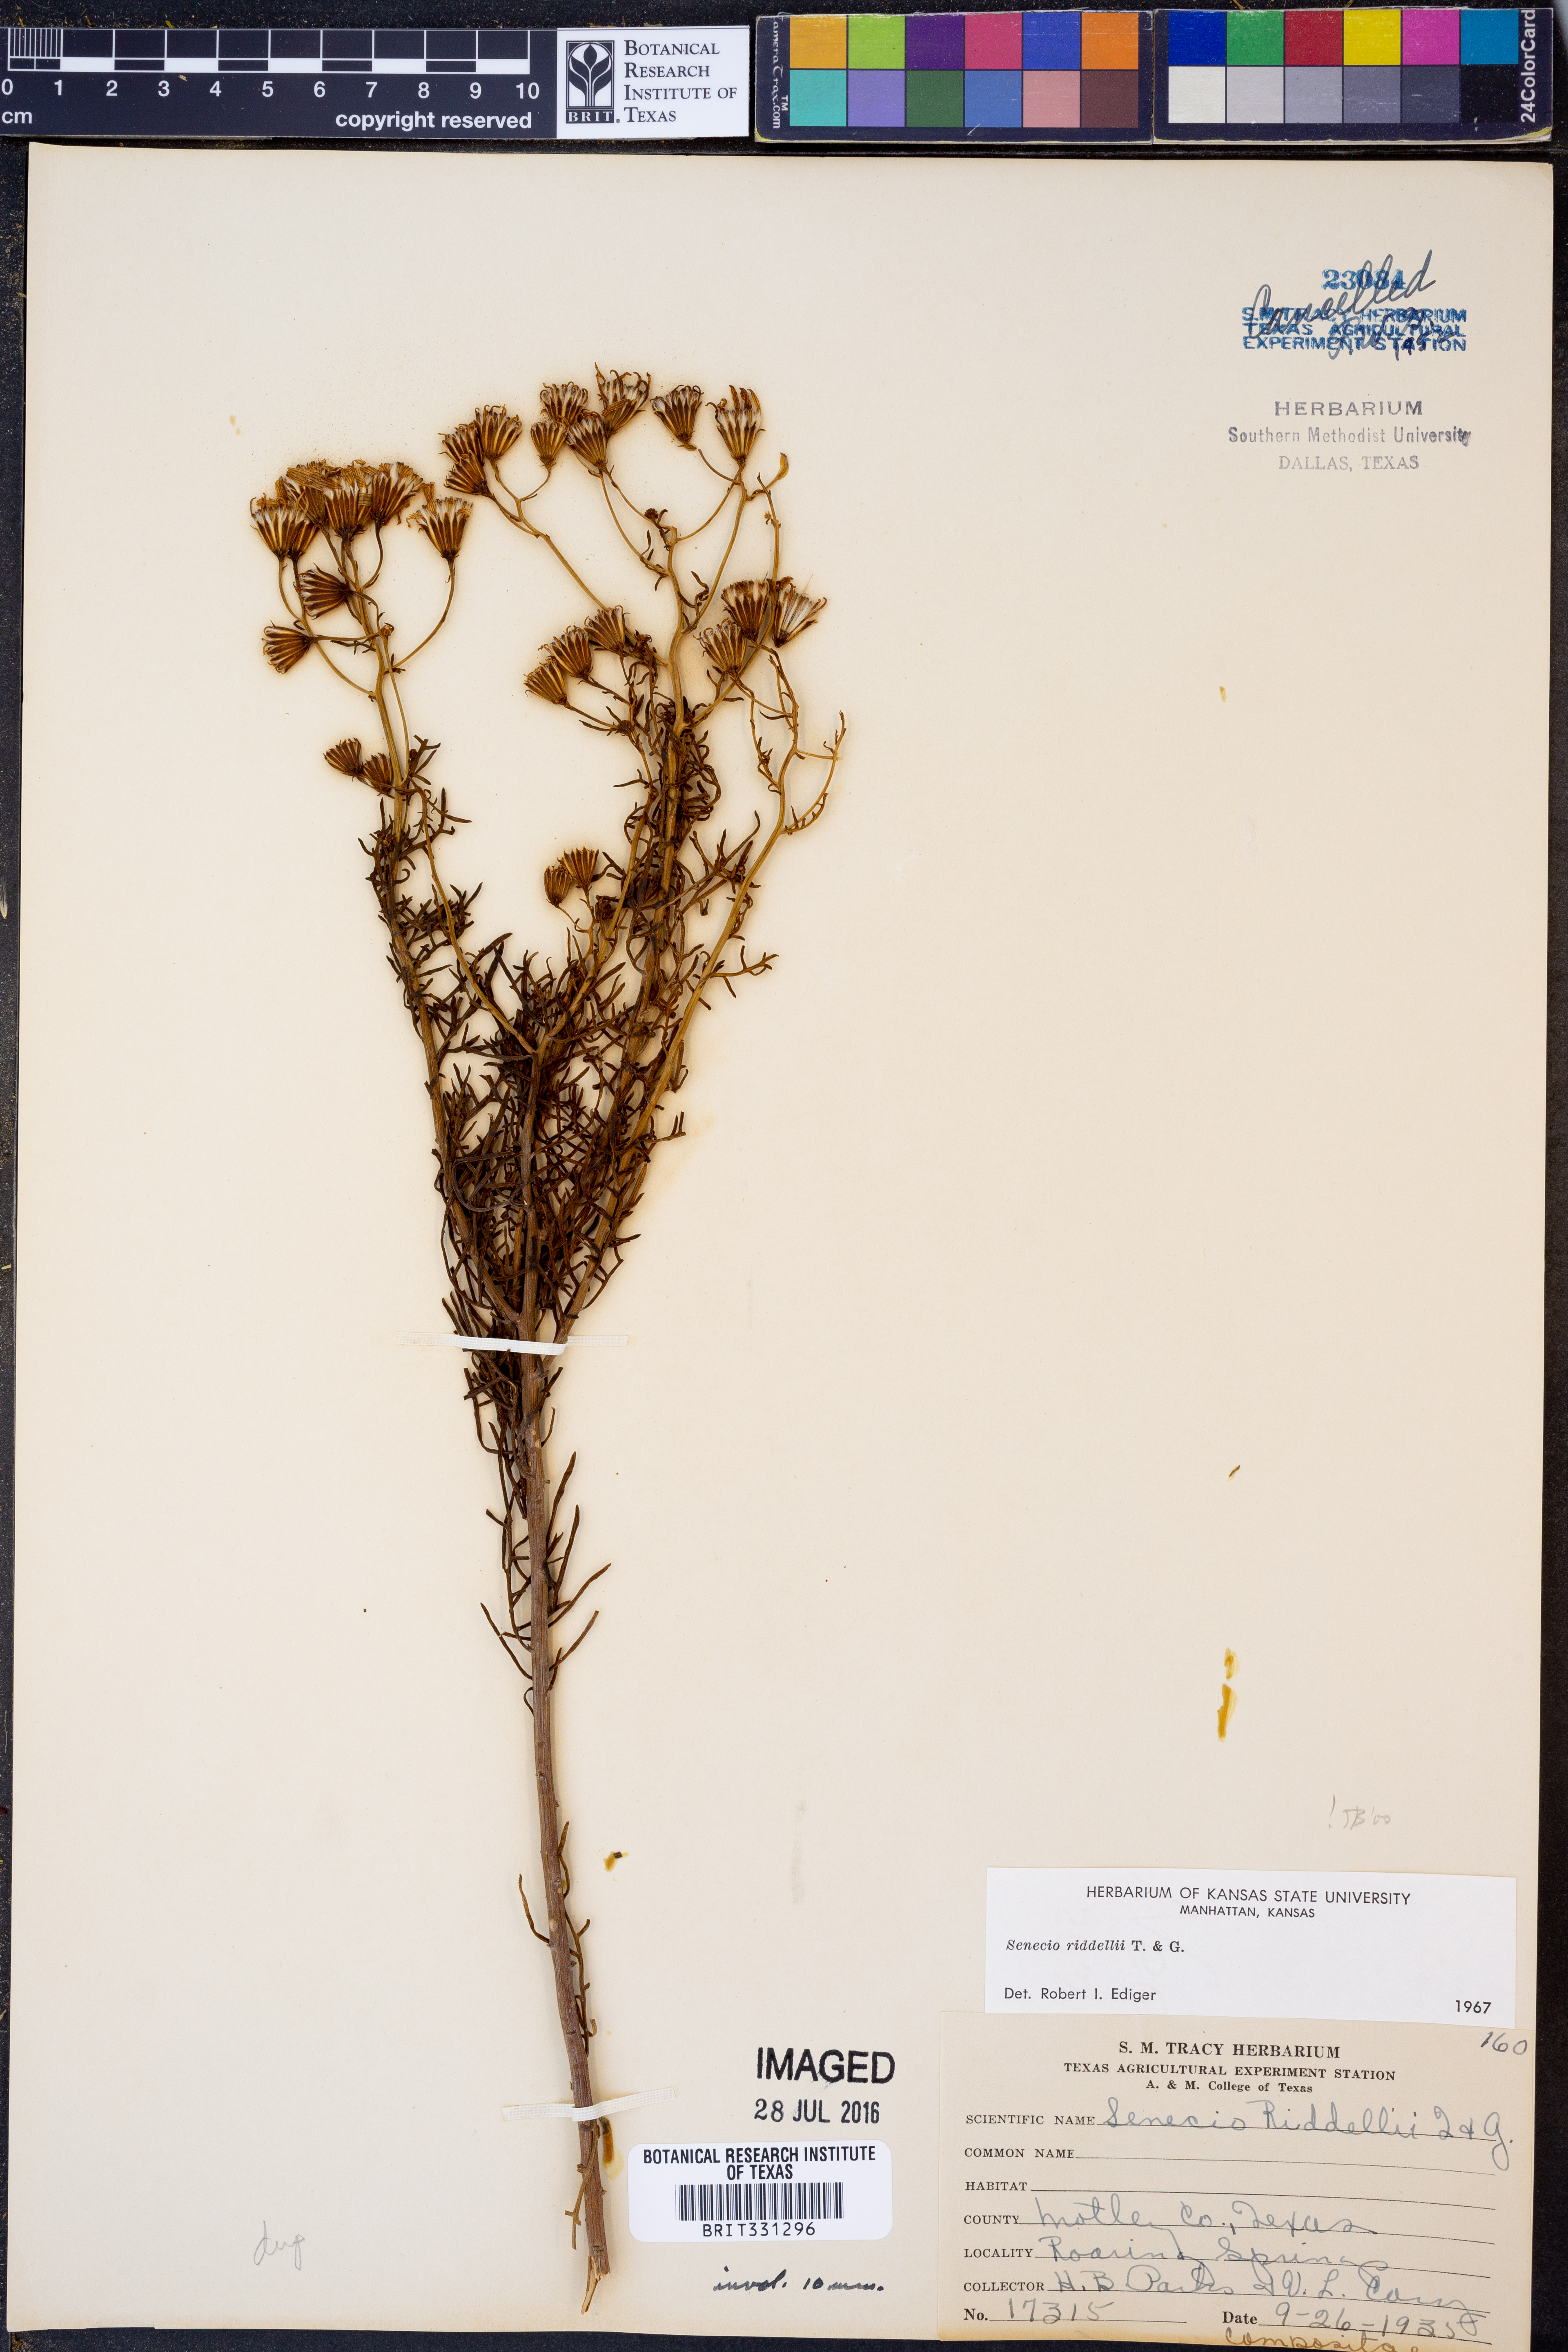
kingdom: Plantae
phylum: Tracheophyta
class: Magnoliopsida
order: Asterales
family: Asteraceae
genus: Senecio
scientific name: Senecio riddellii
